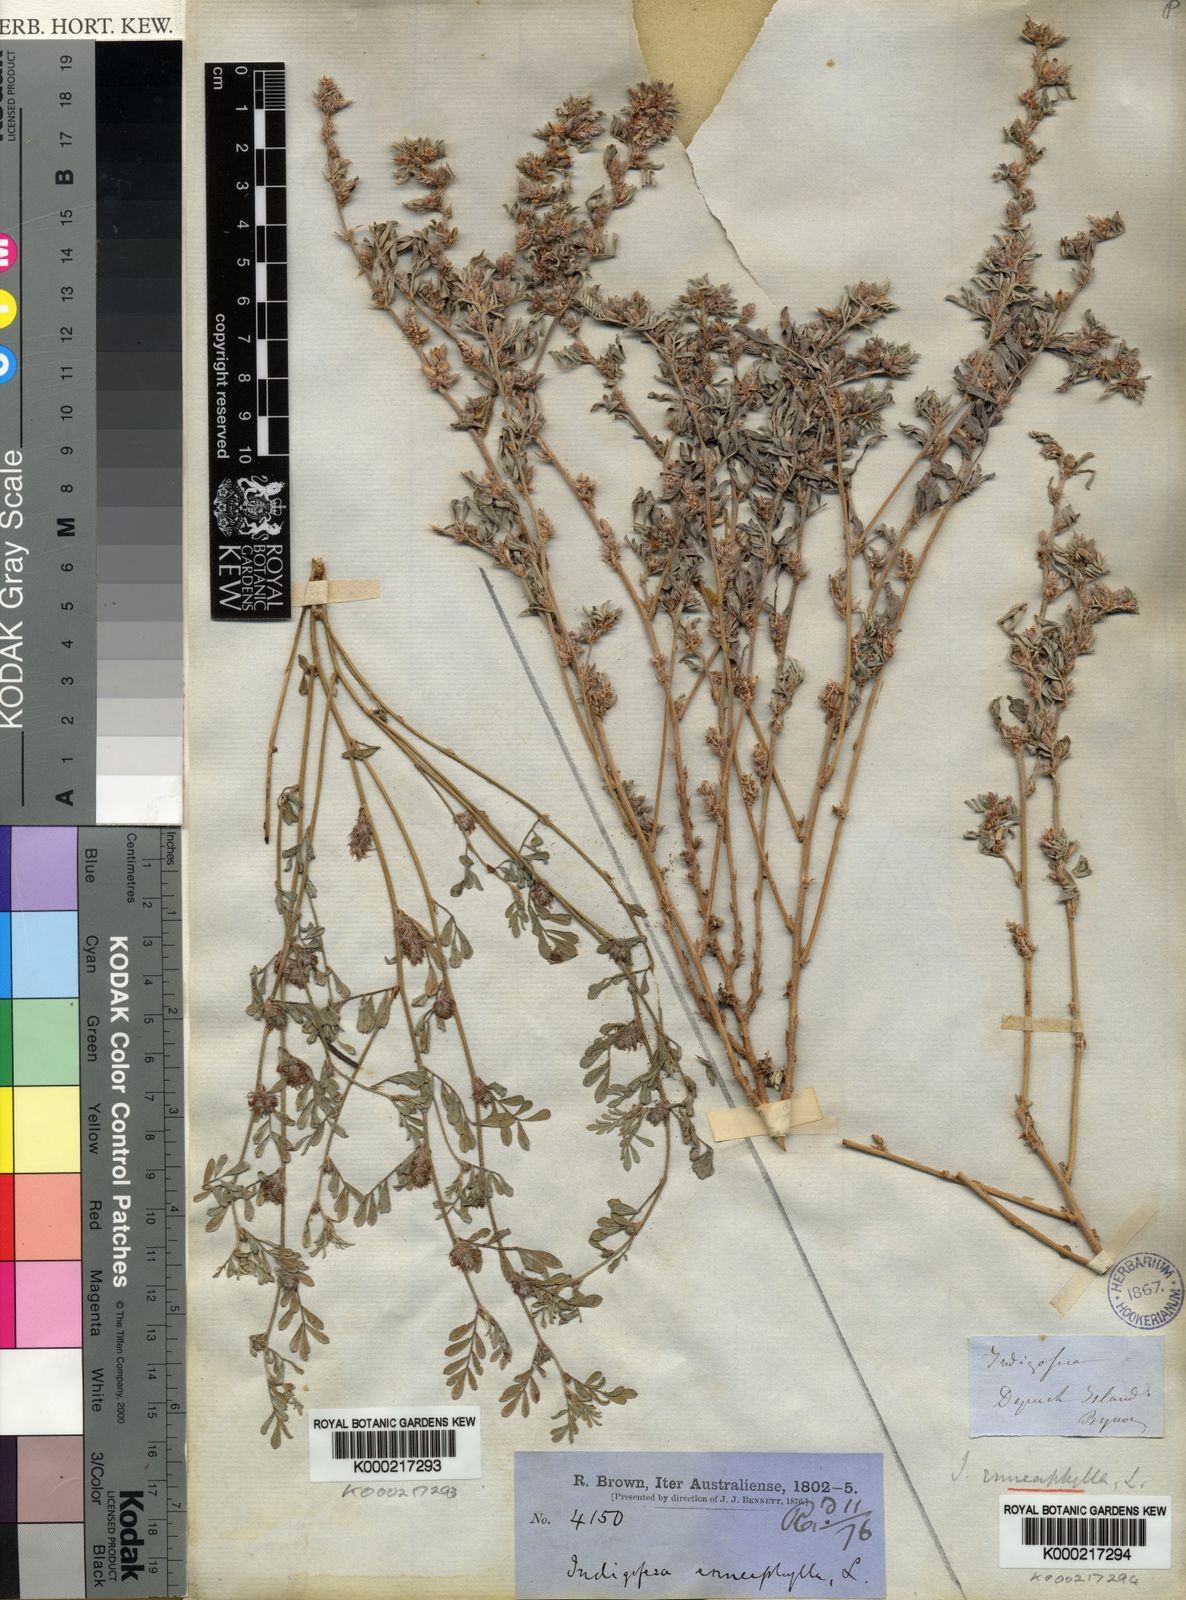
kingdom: Plantae
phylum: Tracheophyta
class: Magnoliopsida
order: Fabales
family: Fabaceae
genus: Indigofera
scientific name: Indigofera linnaei
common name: Nine-leaf indigo
